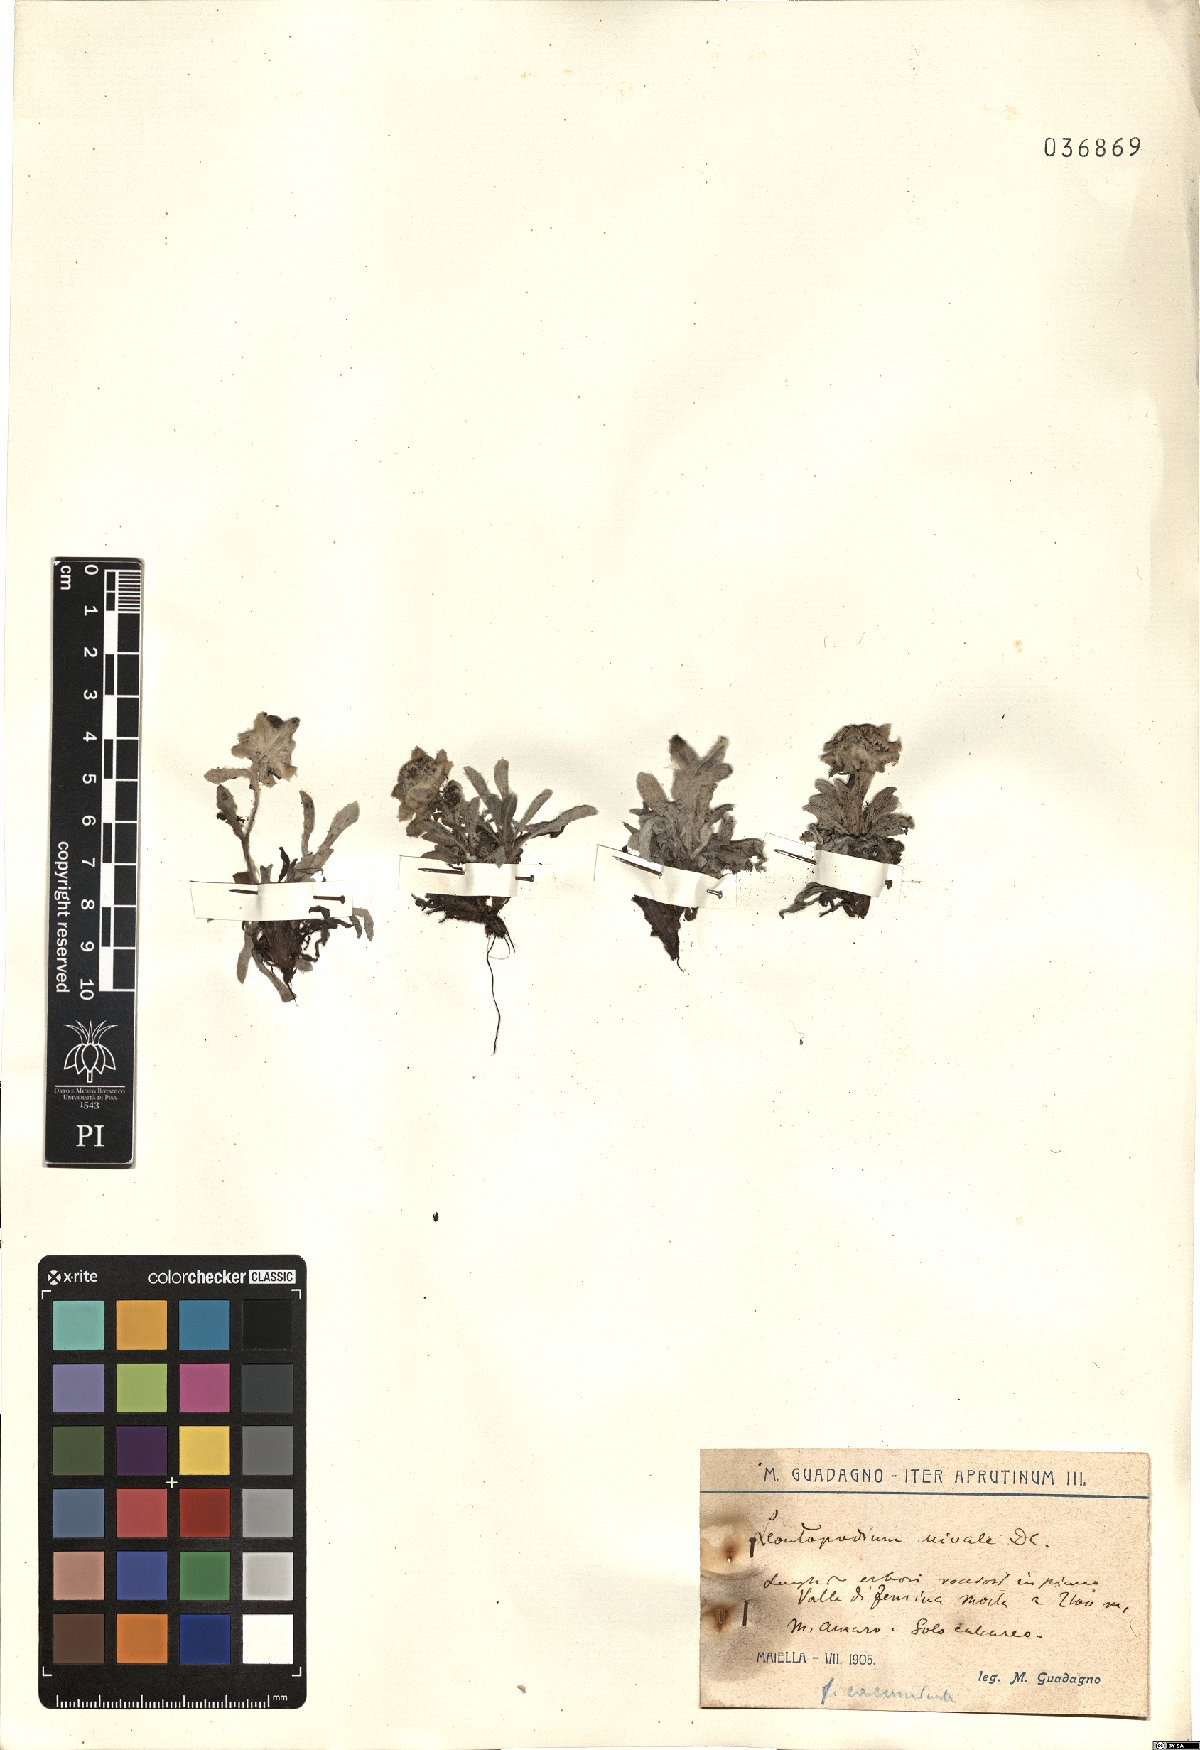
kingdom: Plantae
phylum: Tracheophyta
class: Magnoliopsida
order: Asterales
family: Asteraceae
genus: Leontopodium
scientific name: Leontopodium nivale
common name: Edelweiss
